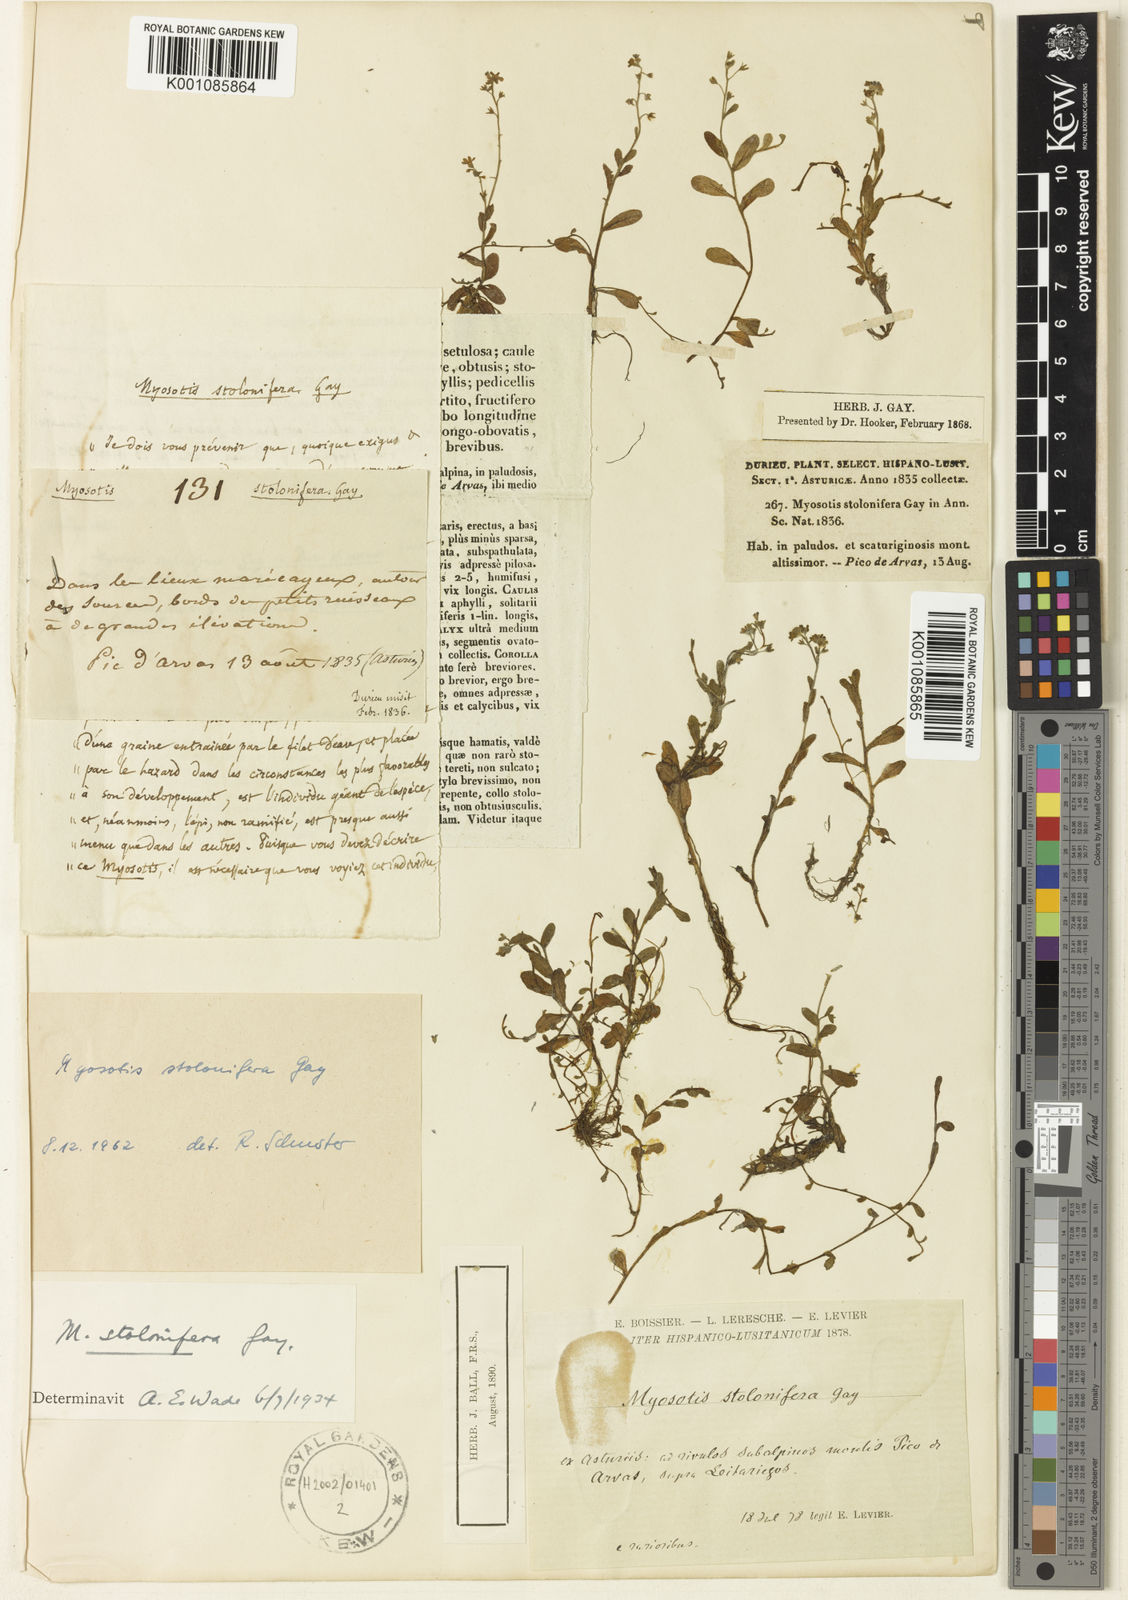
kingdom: Plantae
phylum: Tracheophyta
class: Magnoliopsida
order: Boraginales
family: Boraginaceae
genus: Myosotis
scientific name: Myosotis
